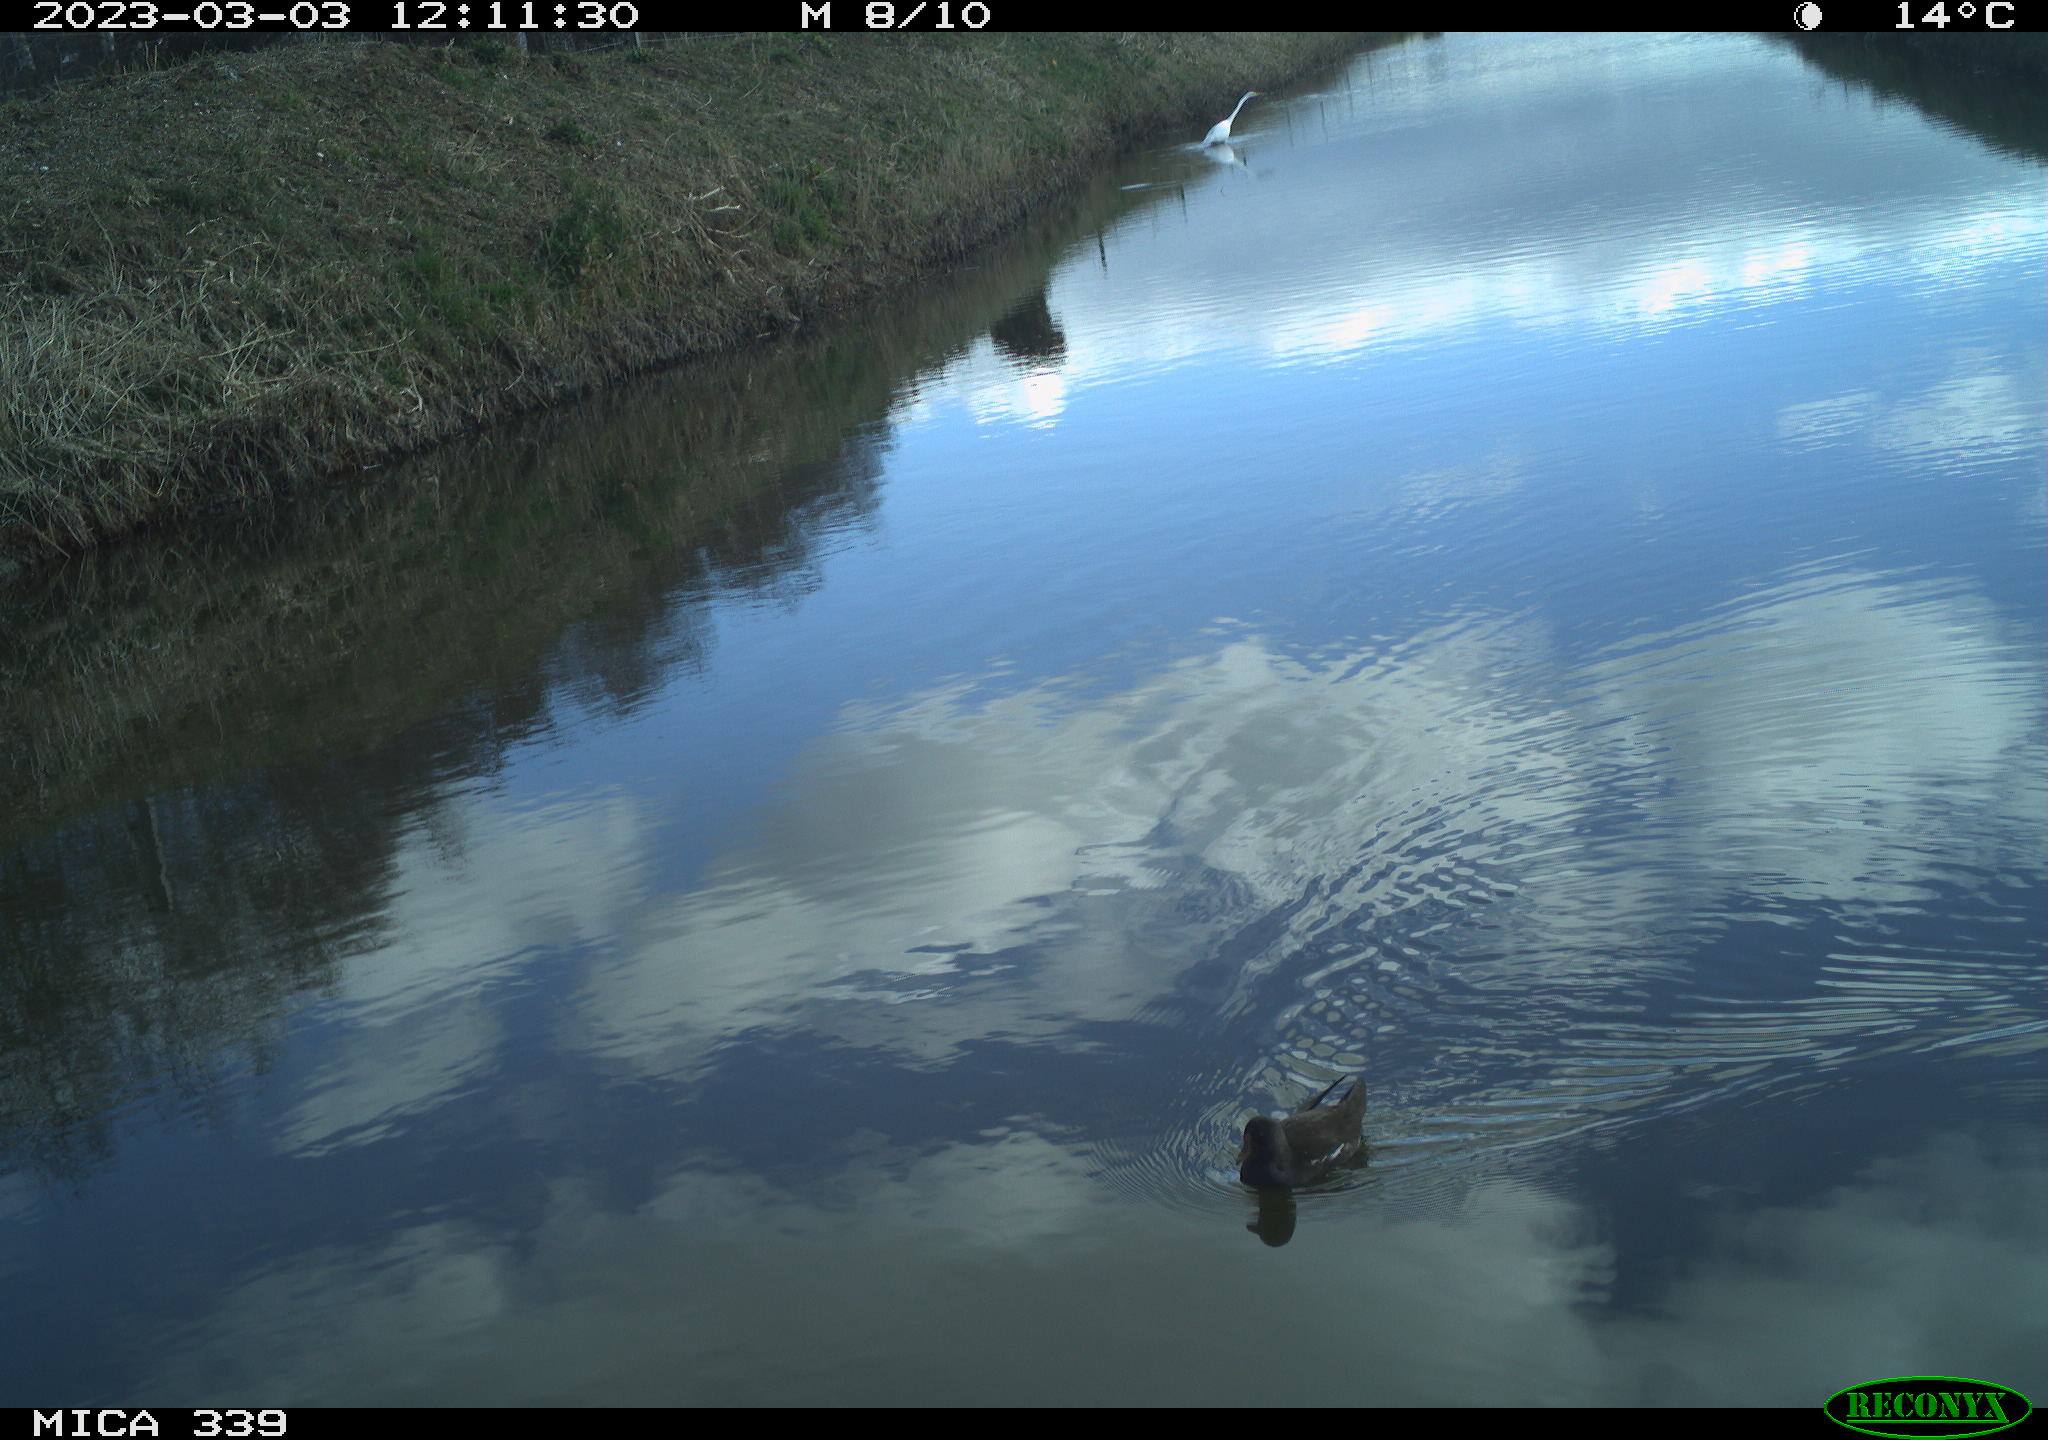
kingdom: Animalia
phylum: Chordata
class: Aves
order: Pelecaniformes
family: Ardeidae
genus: Ardea
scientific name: Ardea alba
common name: Great egret
